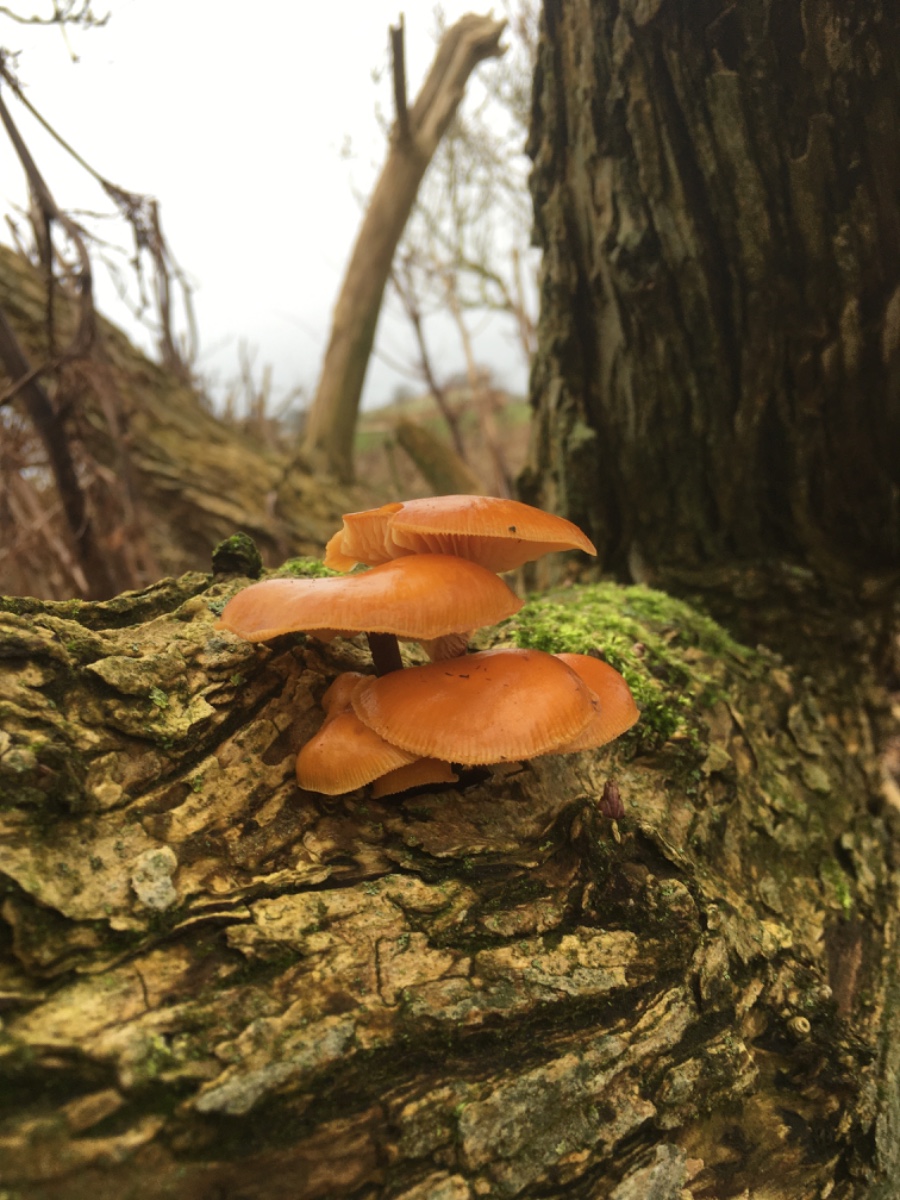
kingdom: Fungi
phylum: Basidiomycota
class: Agaricomycetes
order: Agaricales
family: Physalacriaceae
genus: Flammulina
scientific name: Flammulina velutipes
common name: gul fløjlsfod
